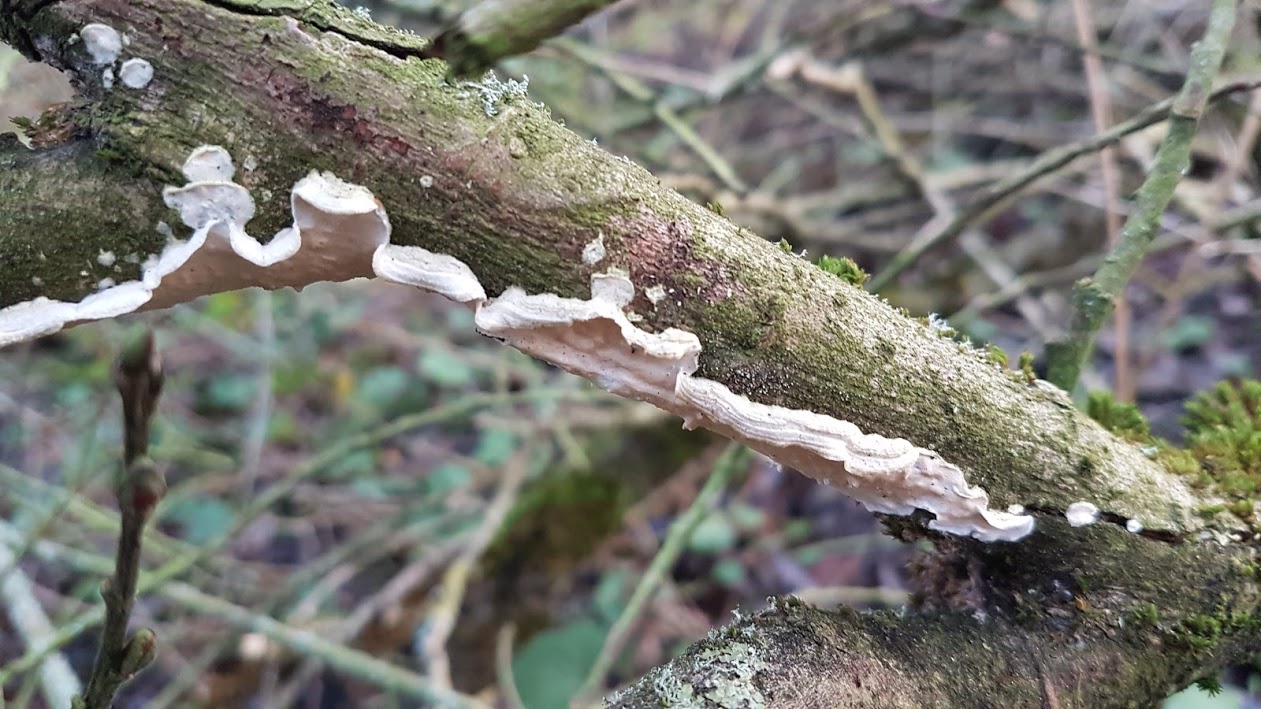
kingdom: Fungi
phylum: Basidiomycota
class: Agaricomycetes
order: Polyporales
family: Irpicaceae
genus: Byssomerulius
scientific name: Byssomerulius corium
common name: læder-åresvamp
